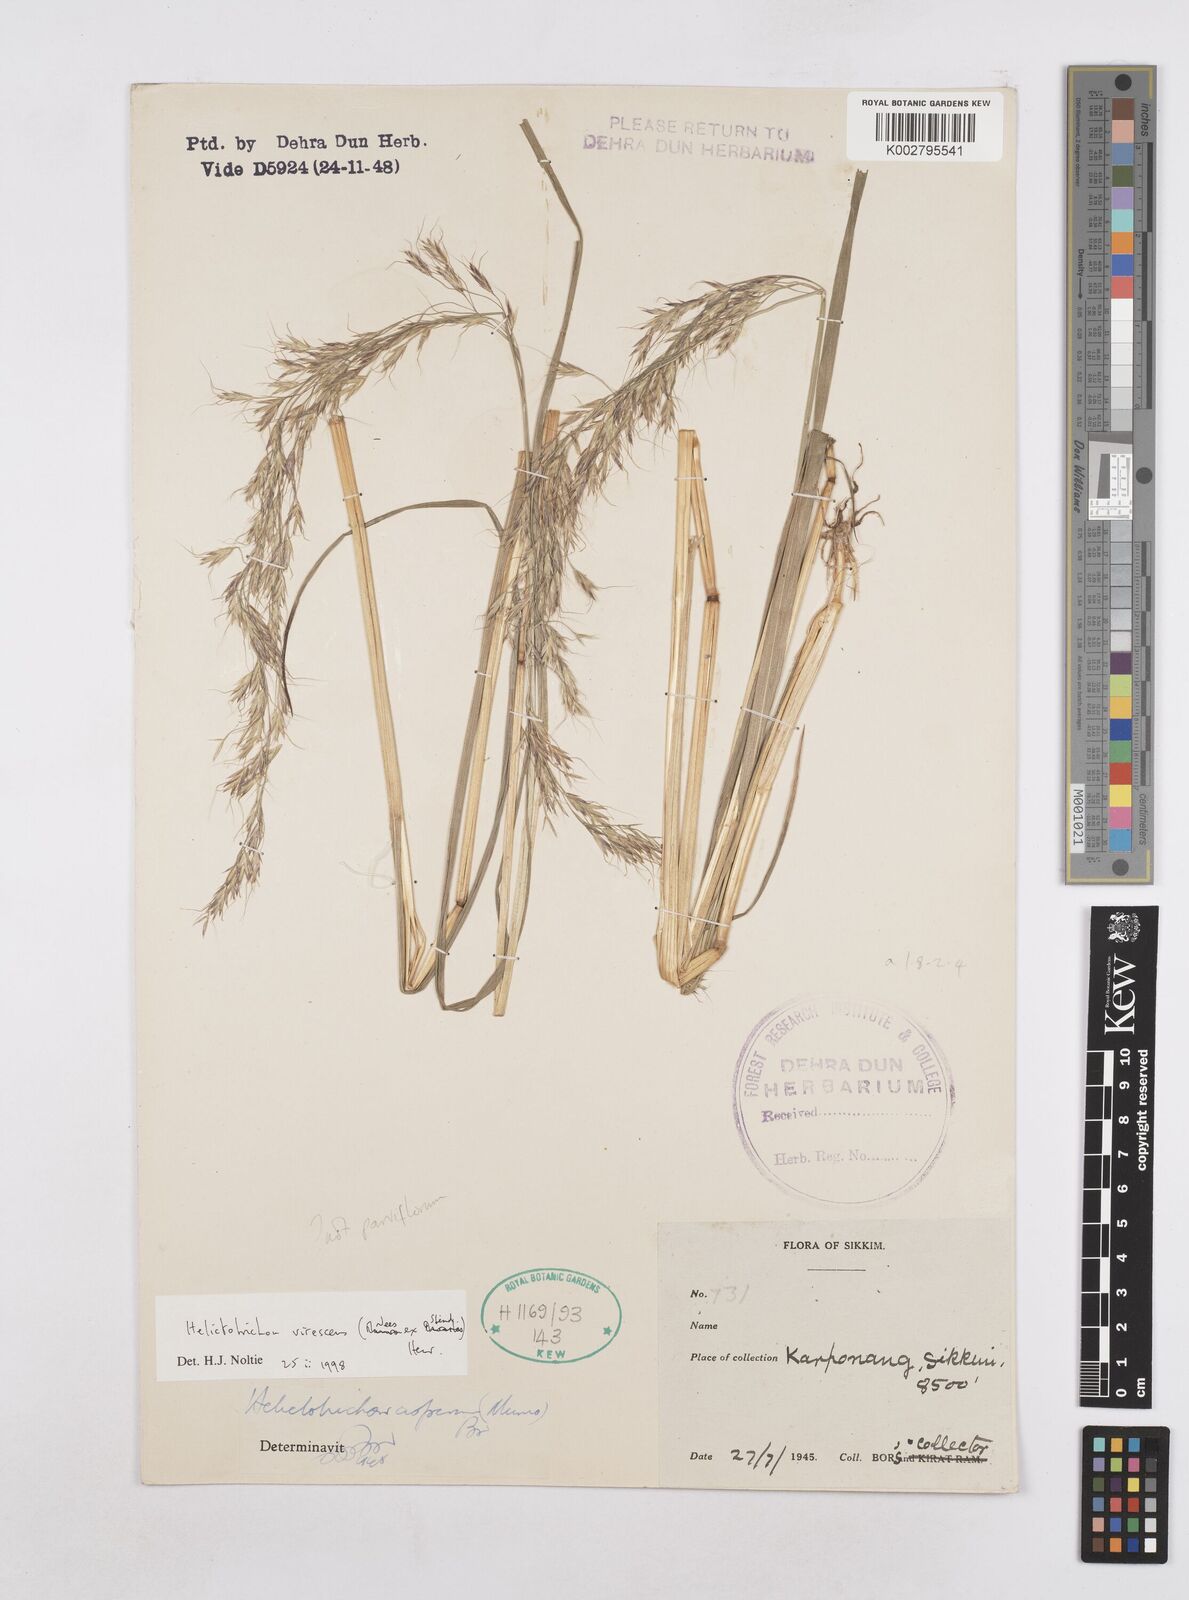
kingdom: Plantae
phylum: Tracheophyta
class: Liliopsida
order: Poales
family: Poaceae
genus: Trisetopsis
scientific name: Trisetopsis junghuhnii
